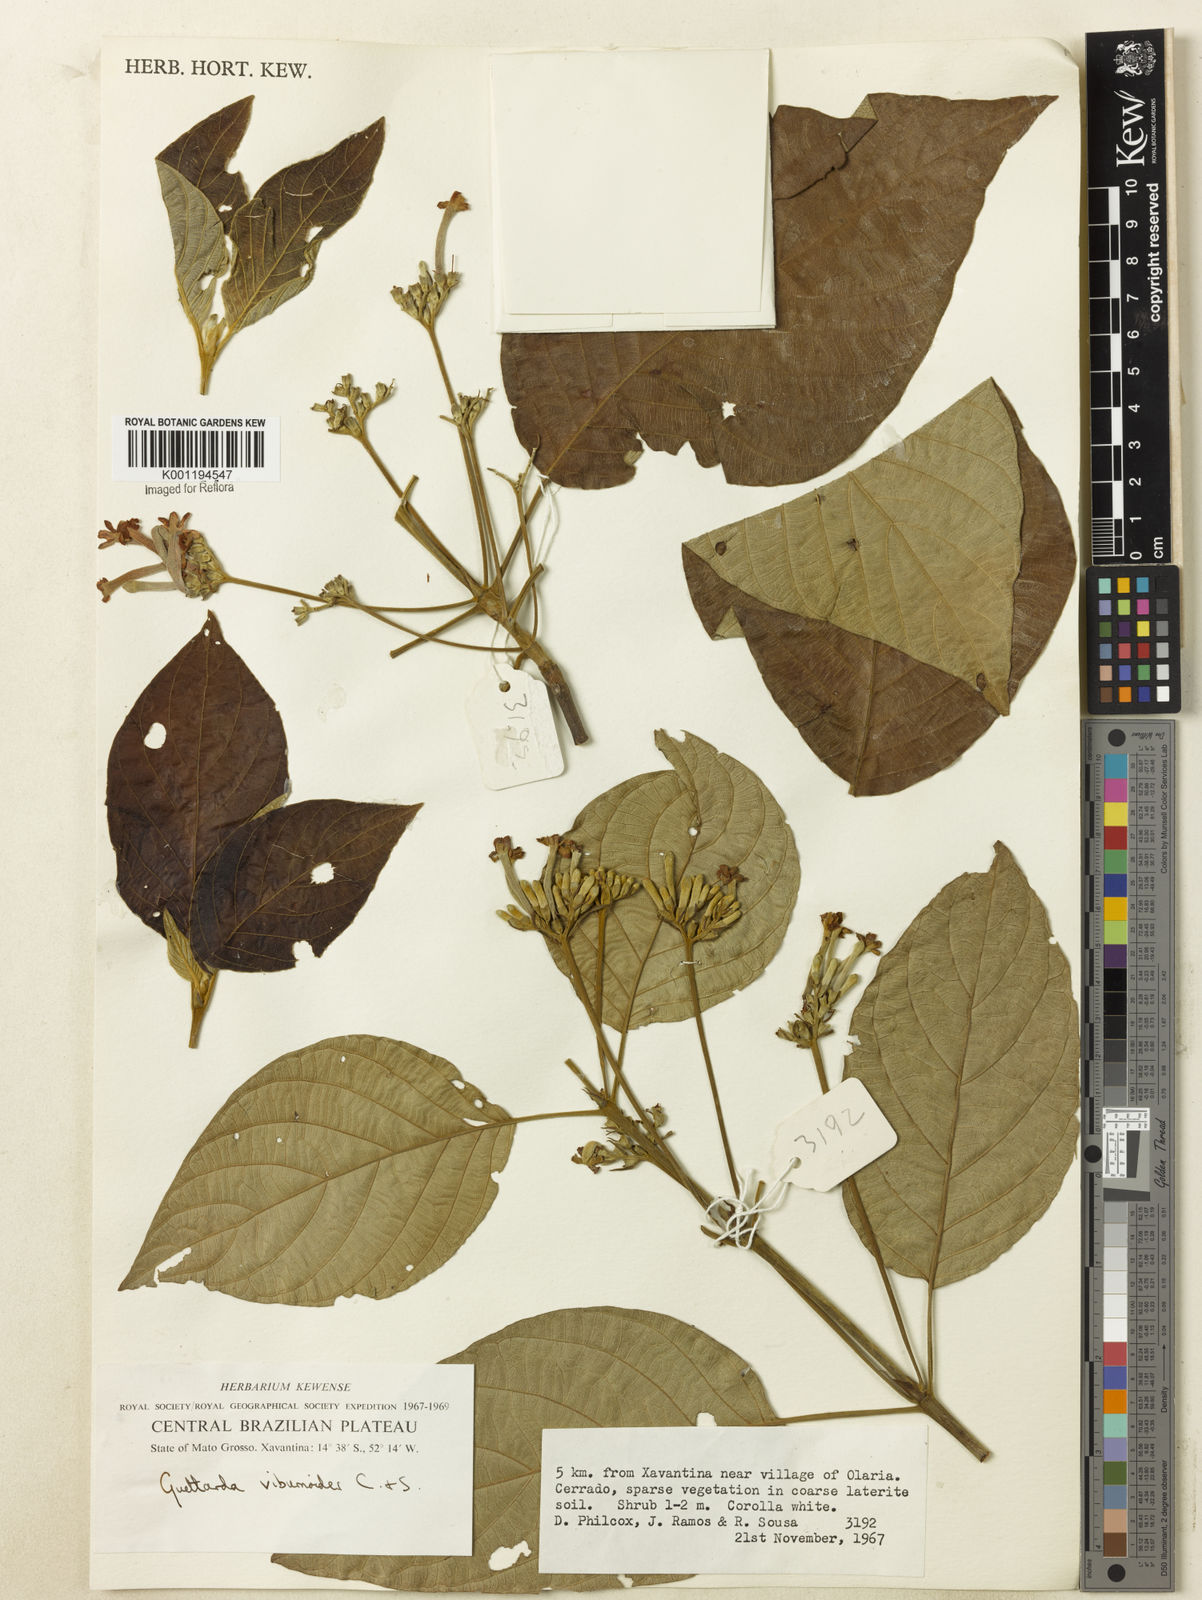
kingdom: Plantae
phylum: Tracheophyta
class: Magnoliopsida
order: Gentianales
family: Rubiaceae
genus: Guettarda
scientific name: Guettarda viburnoides
